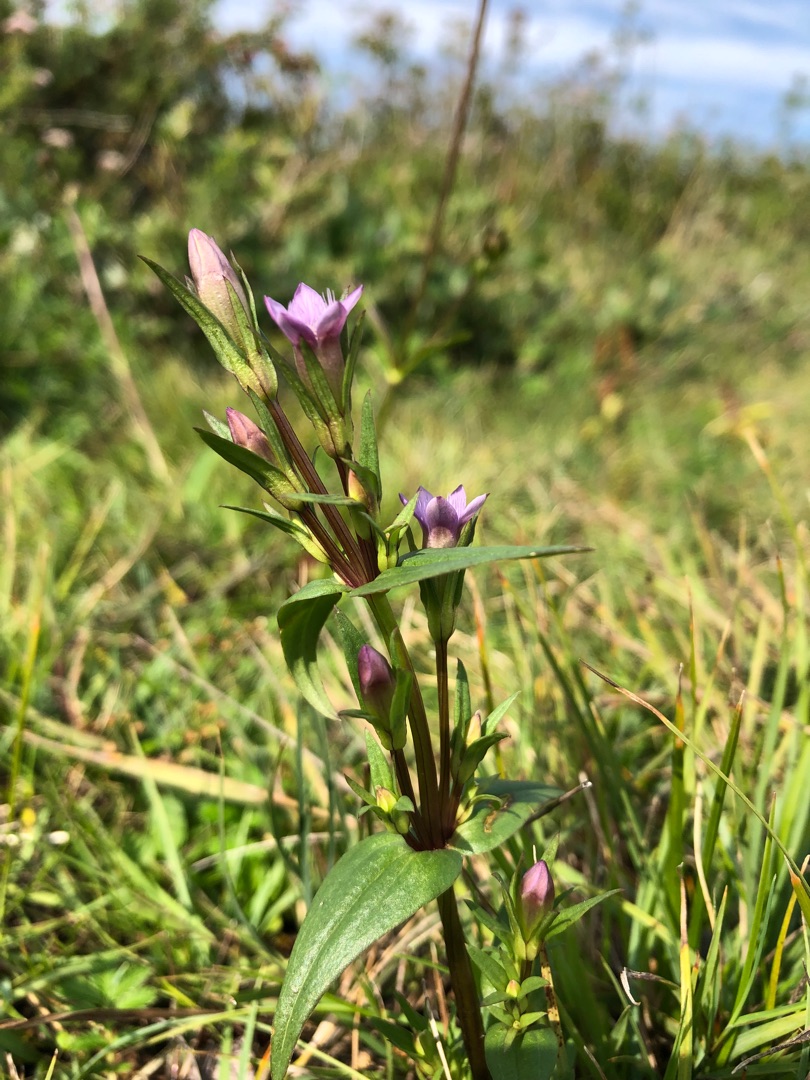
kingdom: Plantae
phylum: Tracheophyta
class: Magnoliopsida
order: Gentianales
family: Gentianaceae
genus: Gentianella
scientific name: Gentianella uliginosa
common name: Eng-ensian
